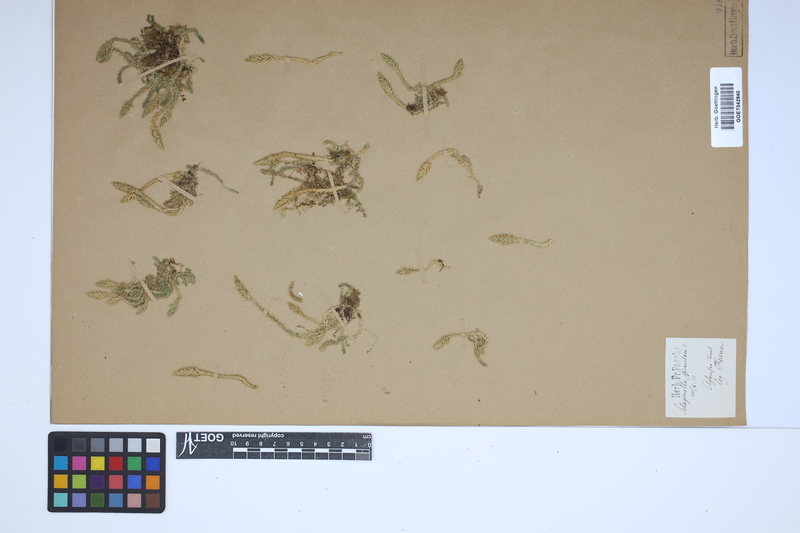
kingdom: Plantae
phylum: Tracheophyta
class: Lycopodiopsida
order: Selaginellales
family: Selaginellaceae
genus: Selaginella
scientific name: Selaginella selaginoides
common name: Prickly mountain-moss
